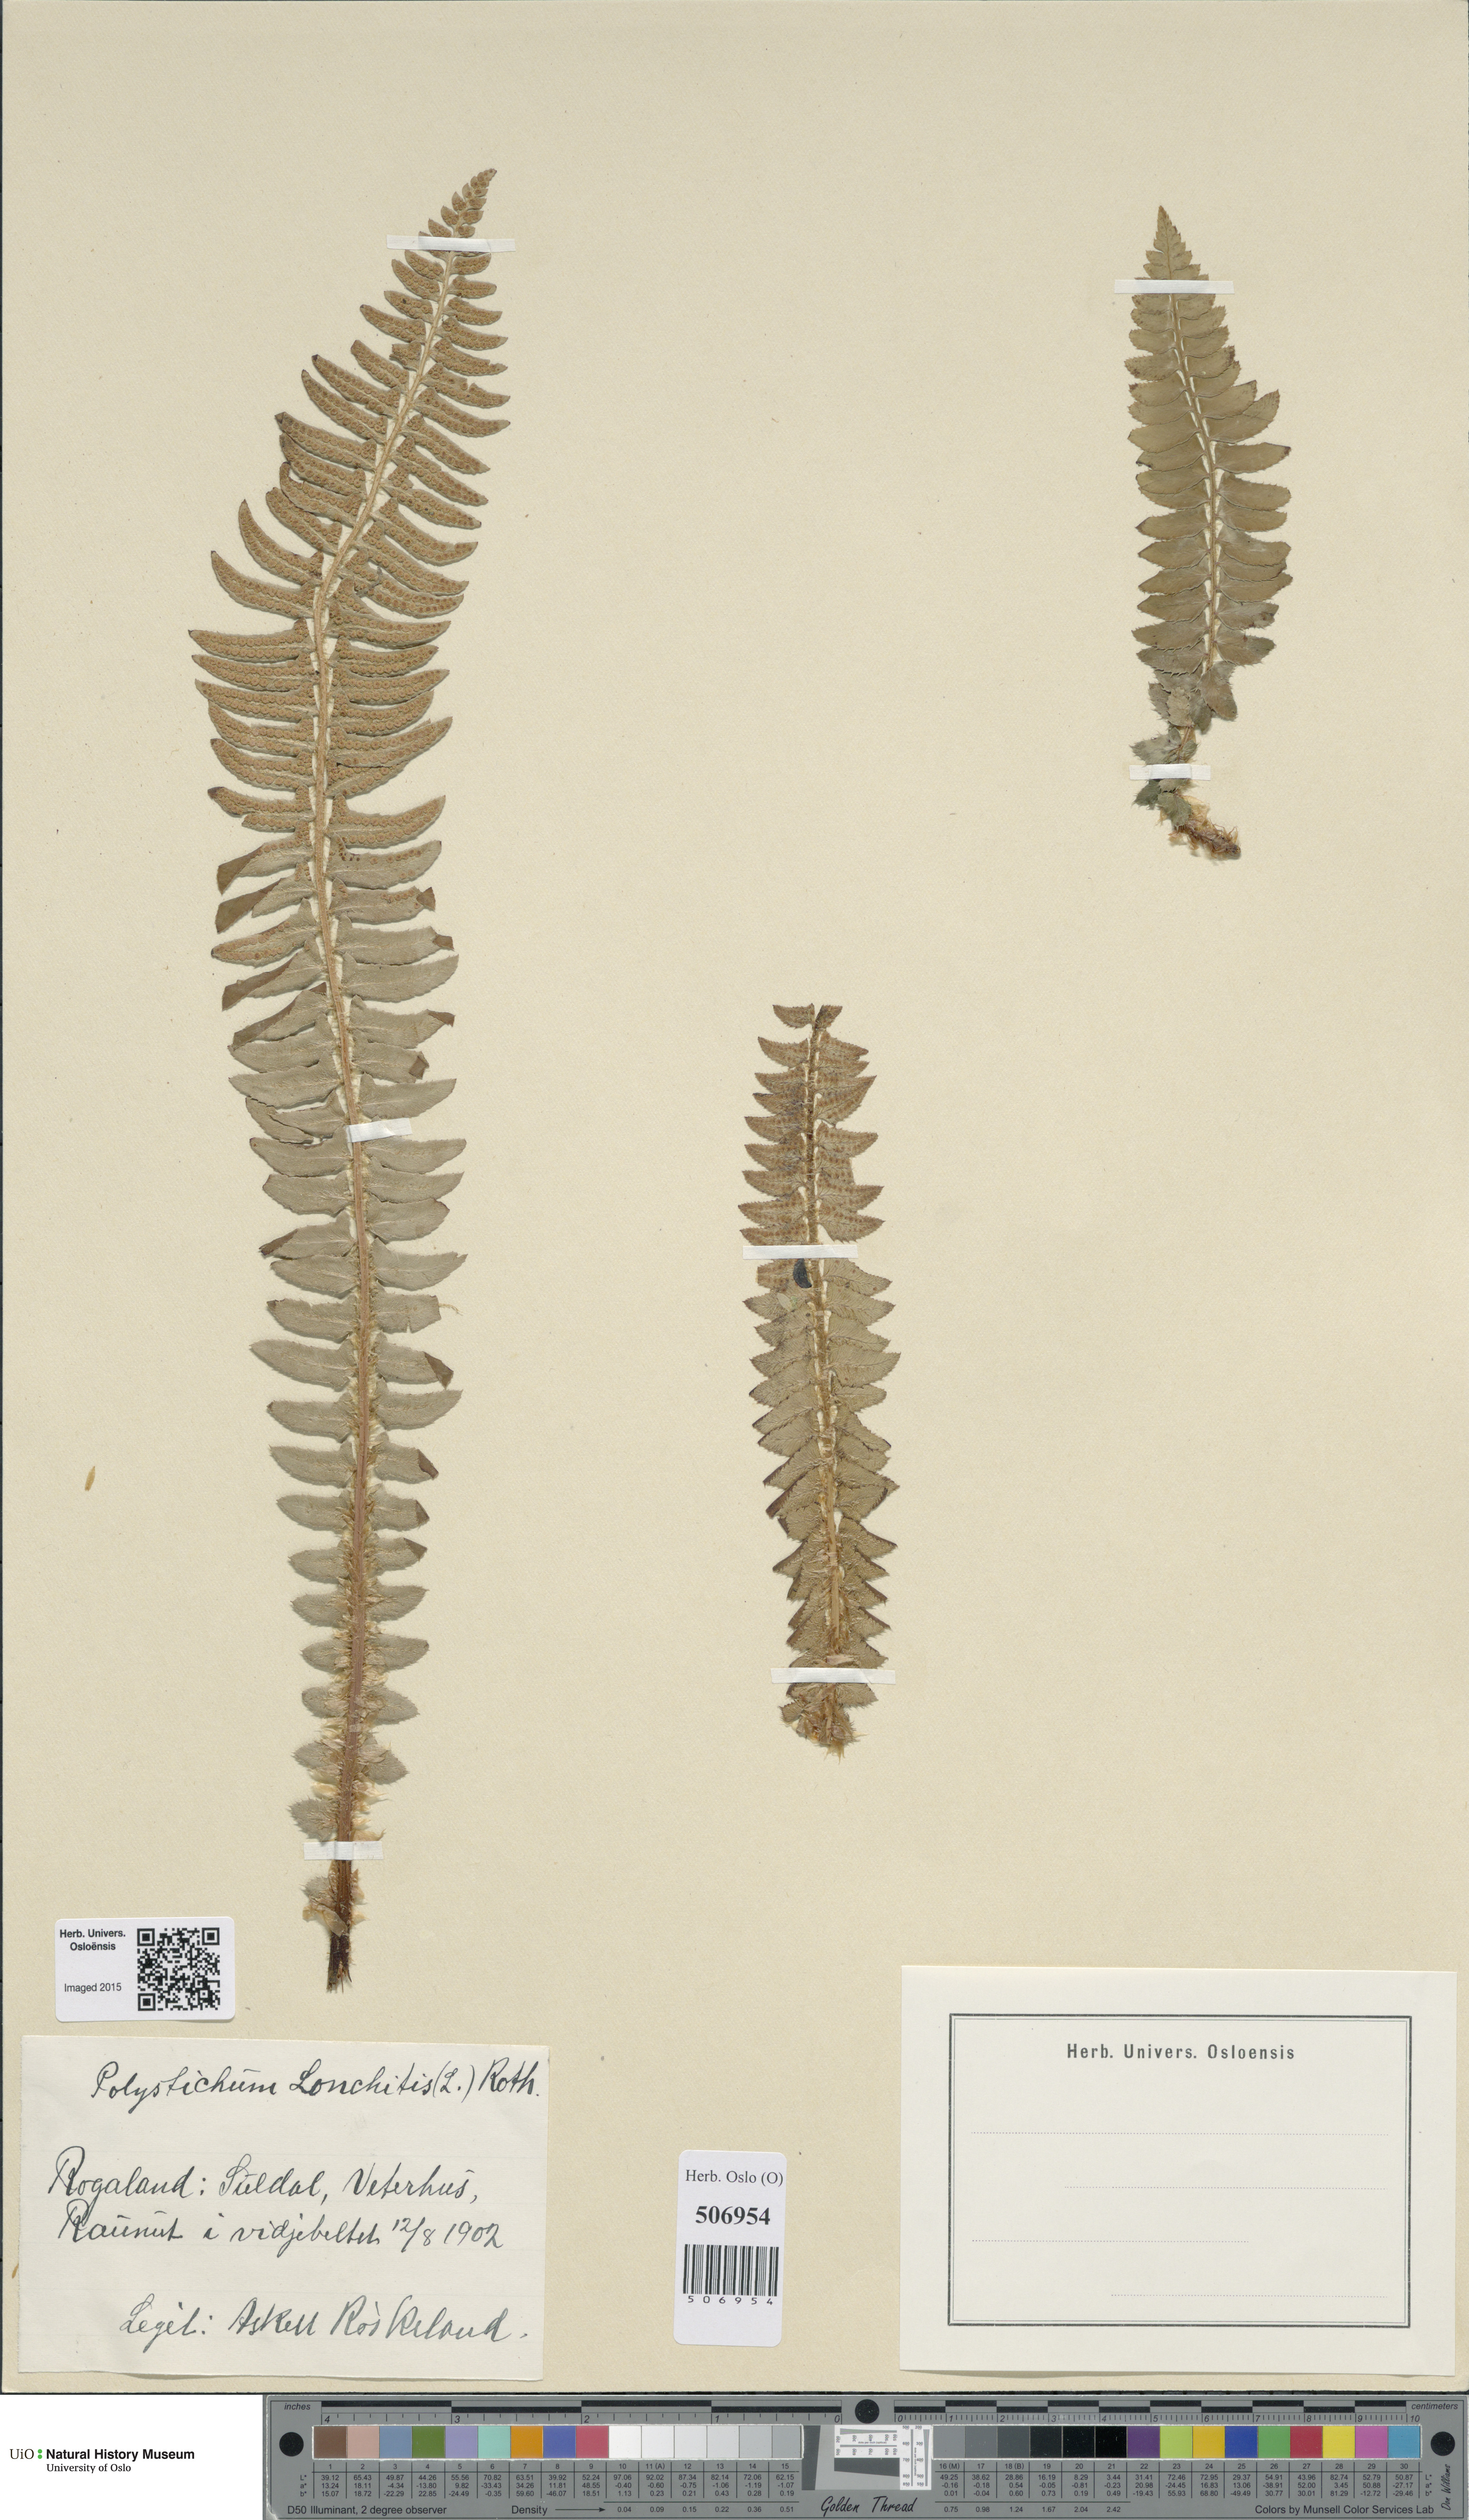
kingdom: Plantae
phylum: Tracheophyta
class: Polypodiopsida
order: Polypodiales
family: Dryopteridaceae
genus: Polystichum
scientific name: Polystichum lonchitis
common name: Holly fern
